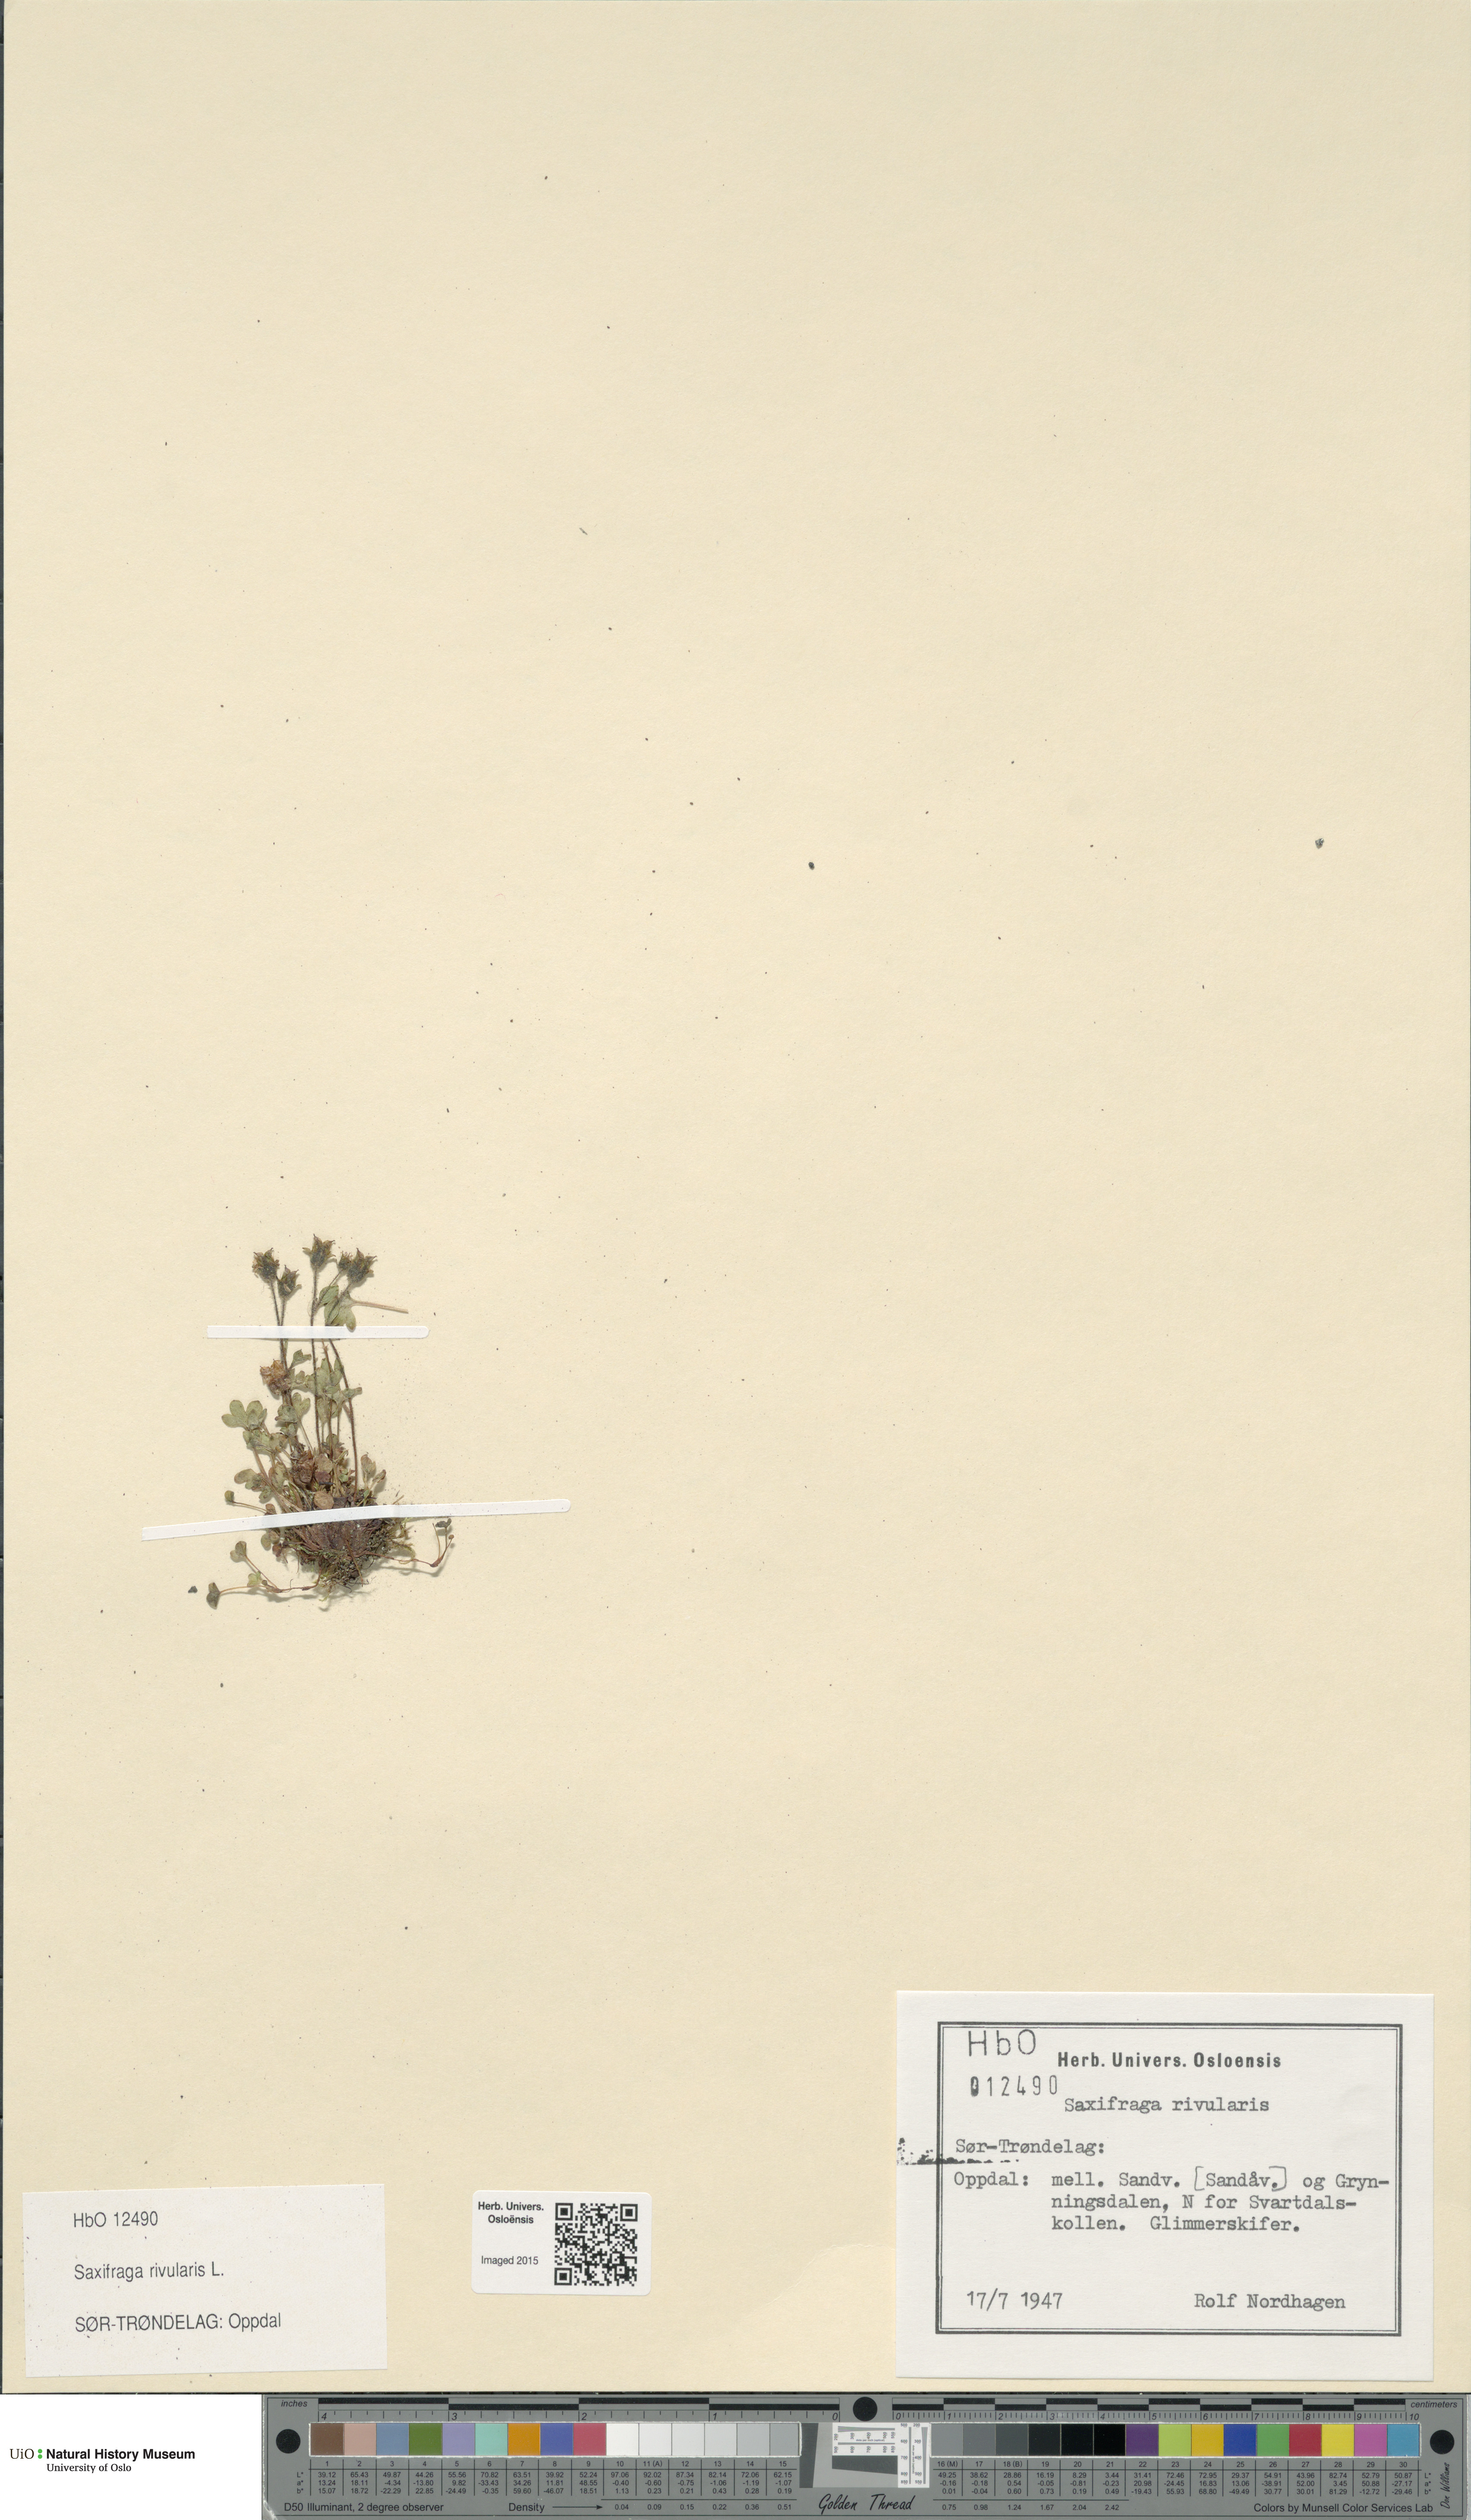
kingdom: Plantae
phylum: Tracheophyta
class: Magnoliopsida
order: Saxifragales
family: Saxifragaceae
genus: Saxifraga
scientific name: Saxifraga rivularis
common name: Highland saxifrage
